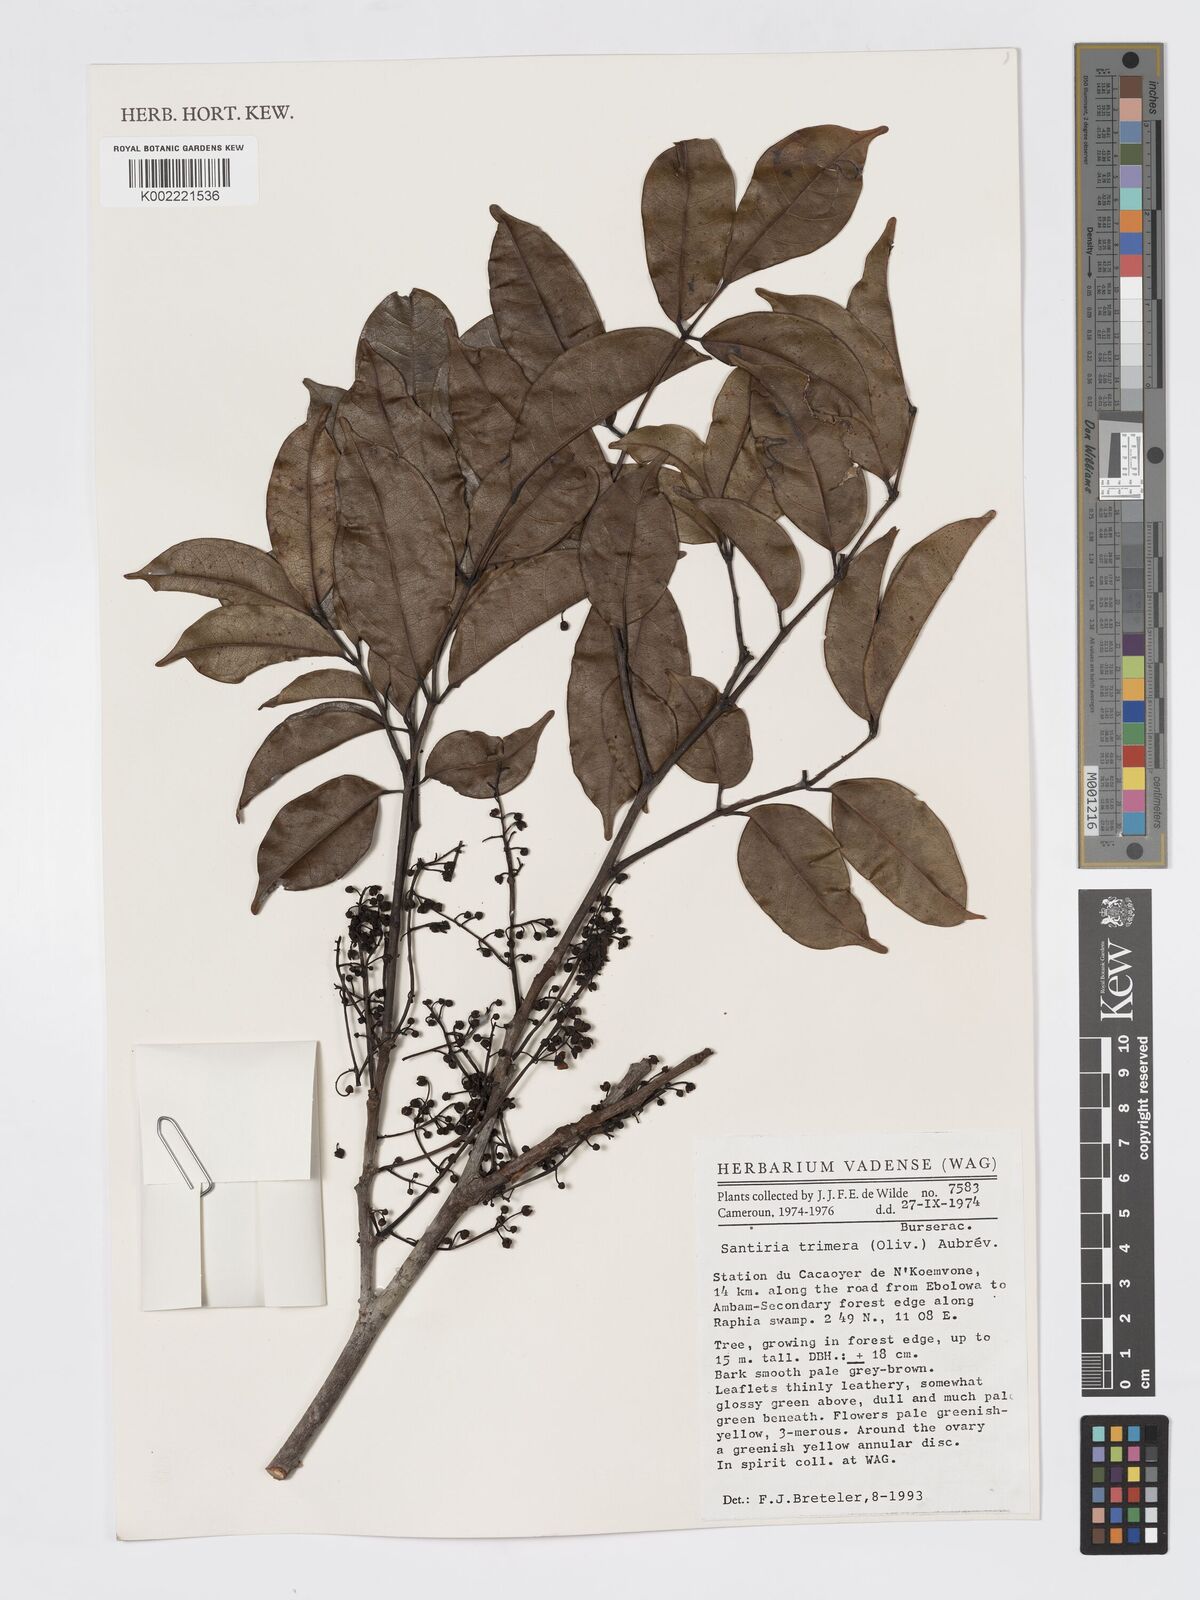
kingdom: Plantae
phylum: Tracheophyta
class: Magnoliopsida
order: Sapindales
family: Burseraceae
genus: Pachylobus
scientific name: Pachylobus trimerus
